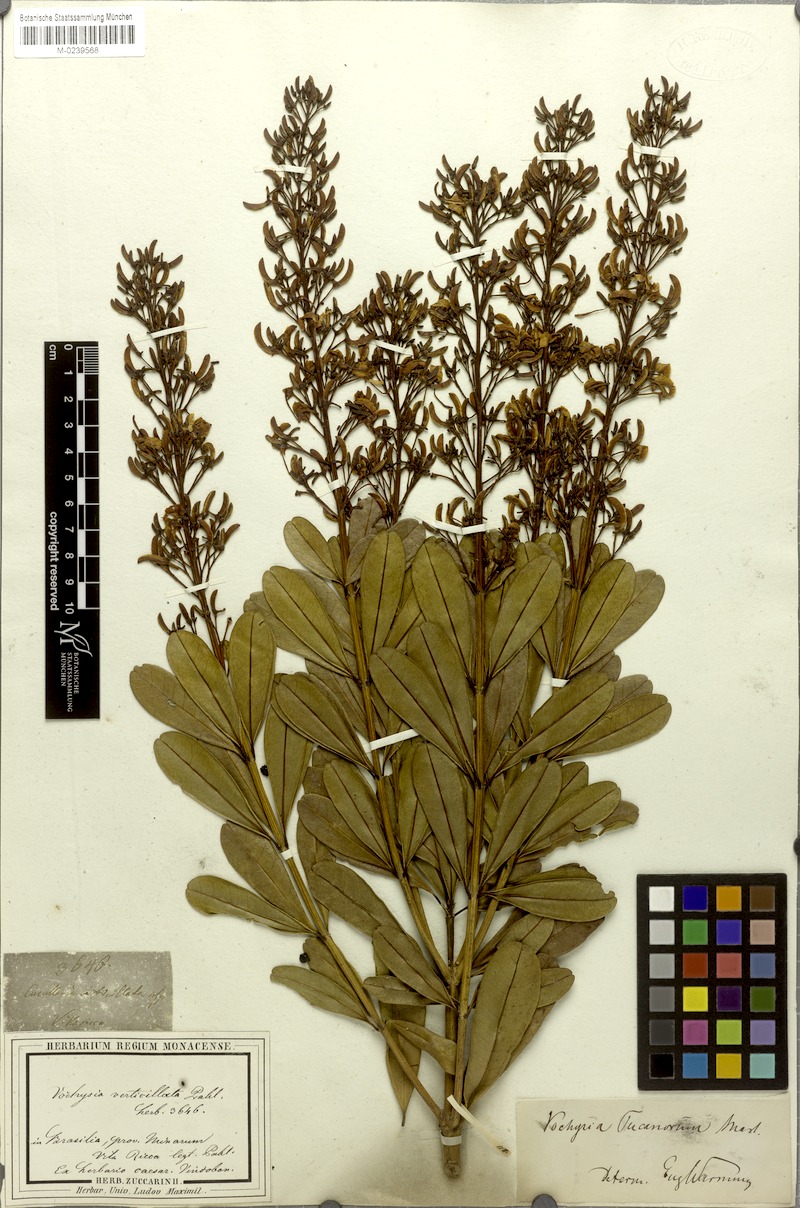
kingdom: Plantae
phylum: Tracheophyta
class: Magnoliopsida
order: Myrtales
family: Vochysiaceae
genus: Vochysia
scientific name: Vochysia tucanorum
